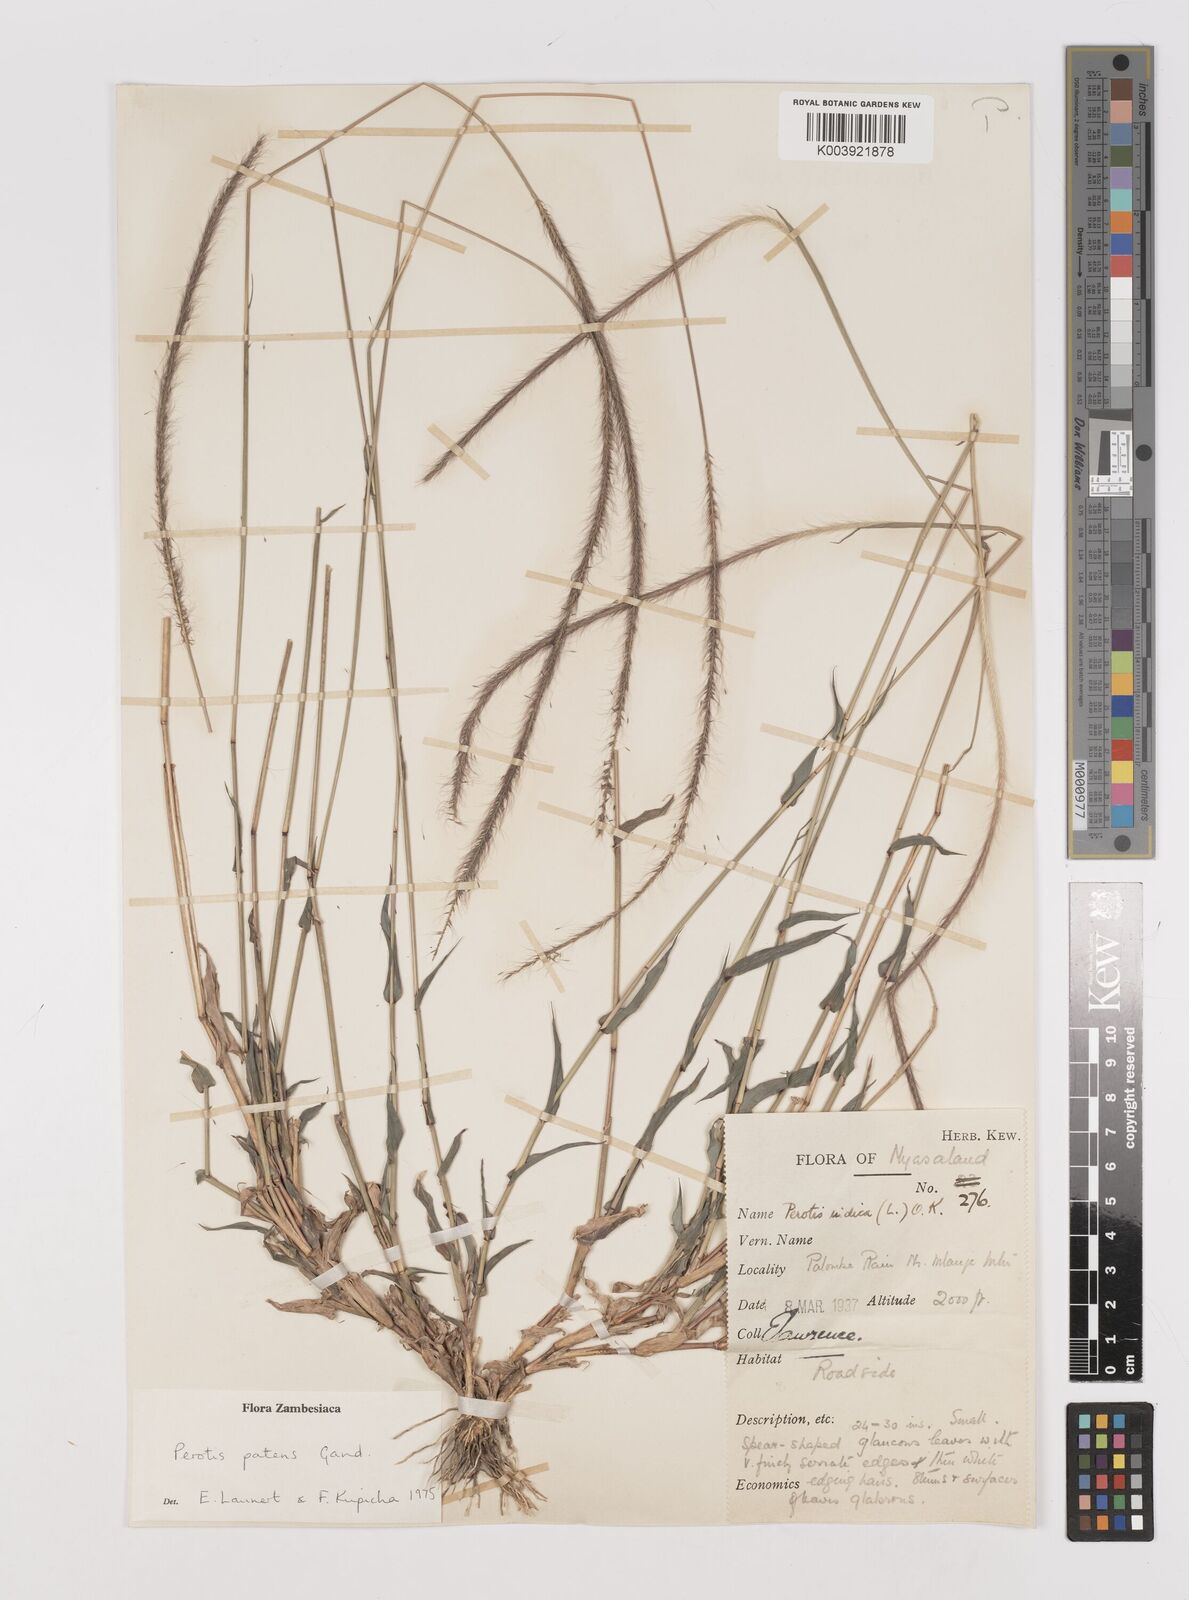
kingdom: Plantae
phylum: Tracheophyta
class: Liliopsida
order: Poales
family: Poaceae
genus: Perotis
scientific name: Perotis patens
